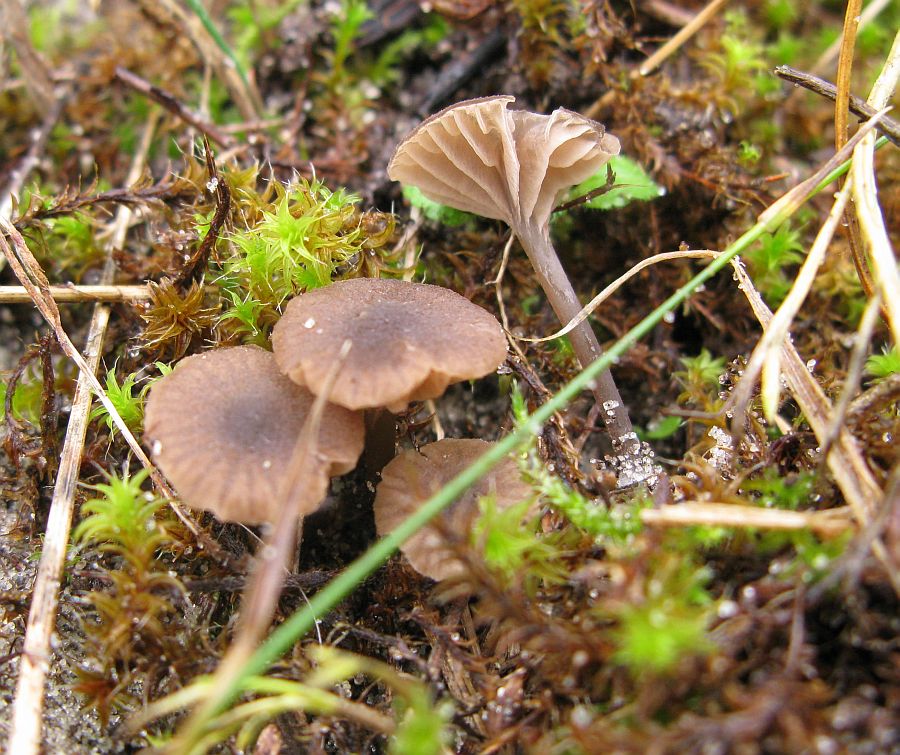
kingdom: Fungi
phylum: Basidiomycota
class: Agaricomycetes
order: Agaricales
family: Entolomataceae
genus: Entoloma
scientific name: Entoloma rusticoides
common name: sand-rødblad
